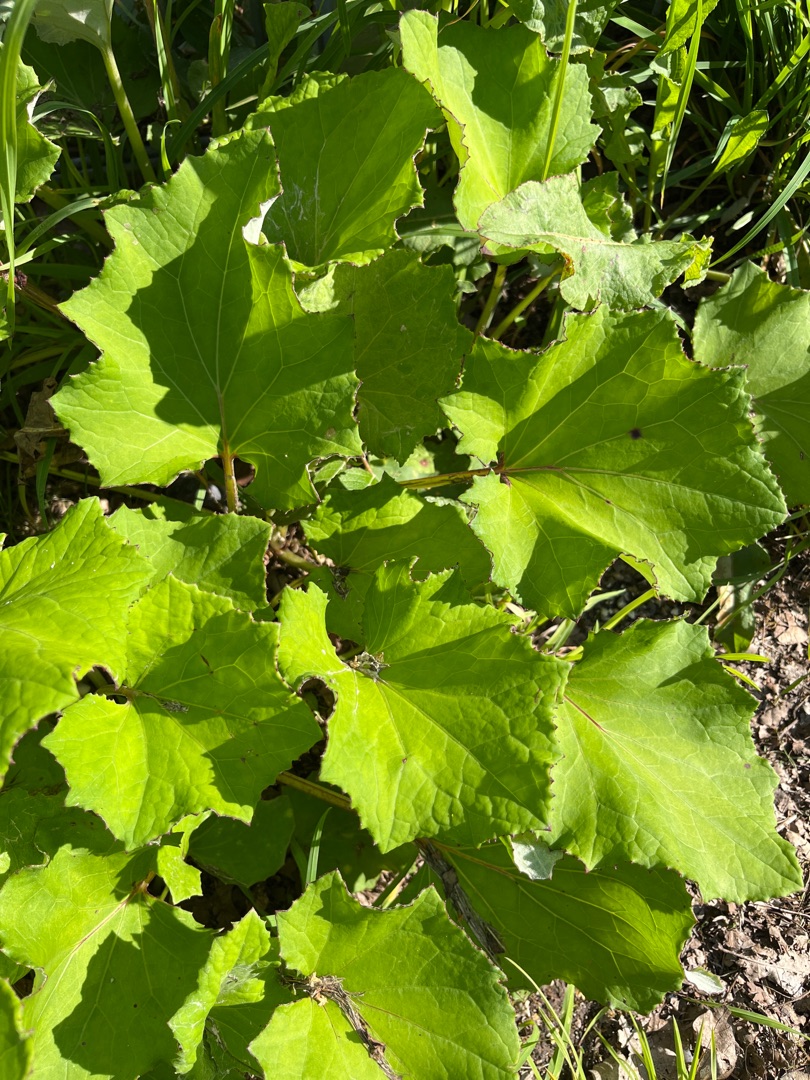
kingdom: Plantae
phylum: Tracheophyta
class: Magnoliopsida
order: Asterales
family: Asteraceae
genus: Tussilago
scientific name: Tussilago farfara
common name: Følfod
